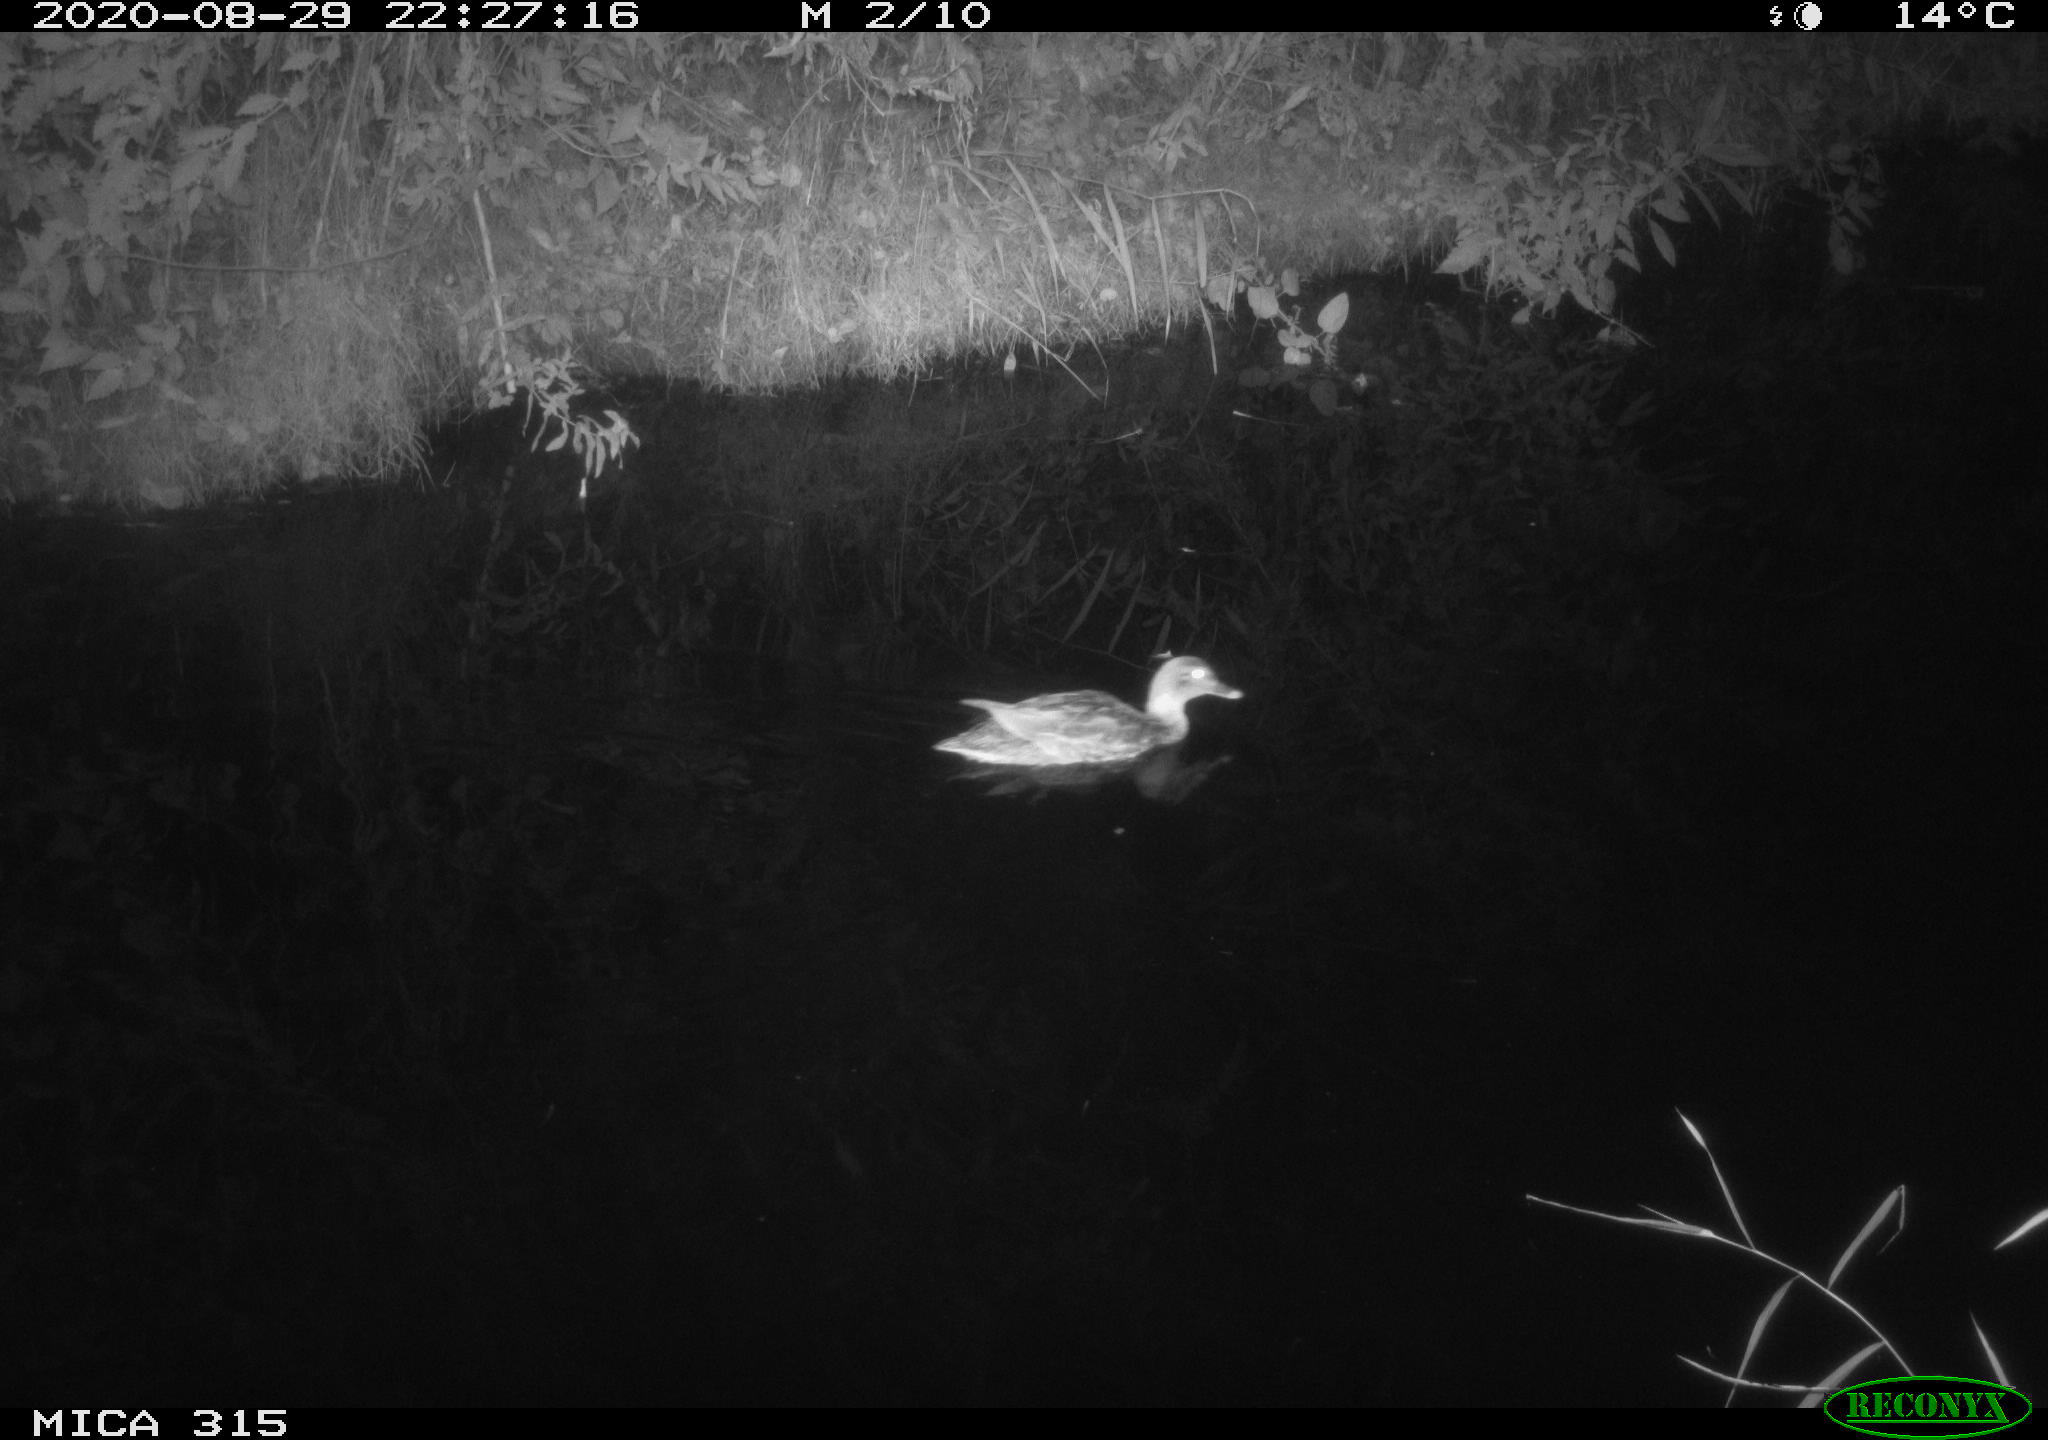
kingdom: Animalia
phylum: Chordata
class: Aves
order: Anseriformes
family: Anatidae
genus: Anas
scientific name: Anas platyrhynchos
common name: Mallard
